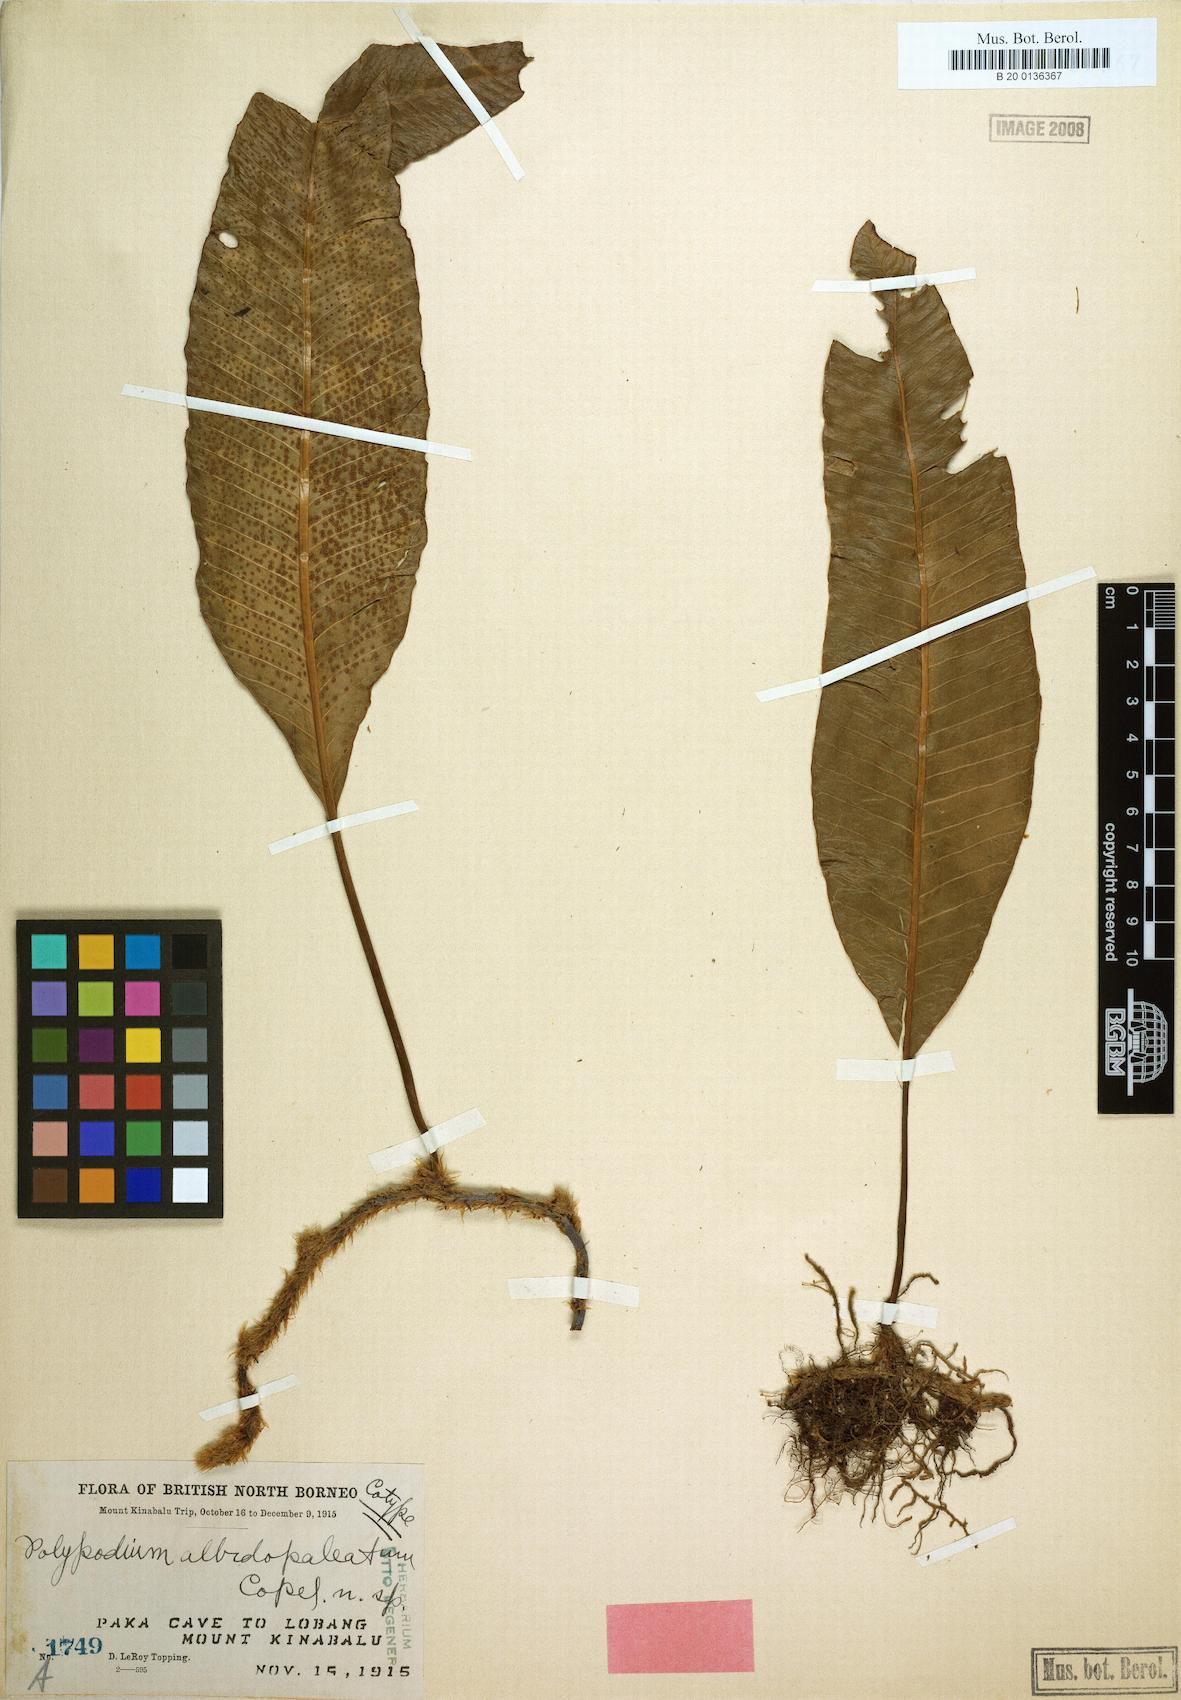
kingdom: Plantae
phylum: Tracheophyta
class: Polypodiopsida
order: Polypodiales
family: Polypodiaceae
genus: Selliguea
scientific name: Selliguea albidopaleata
